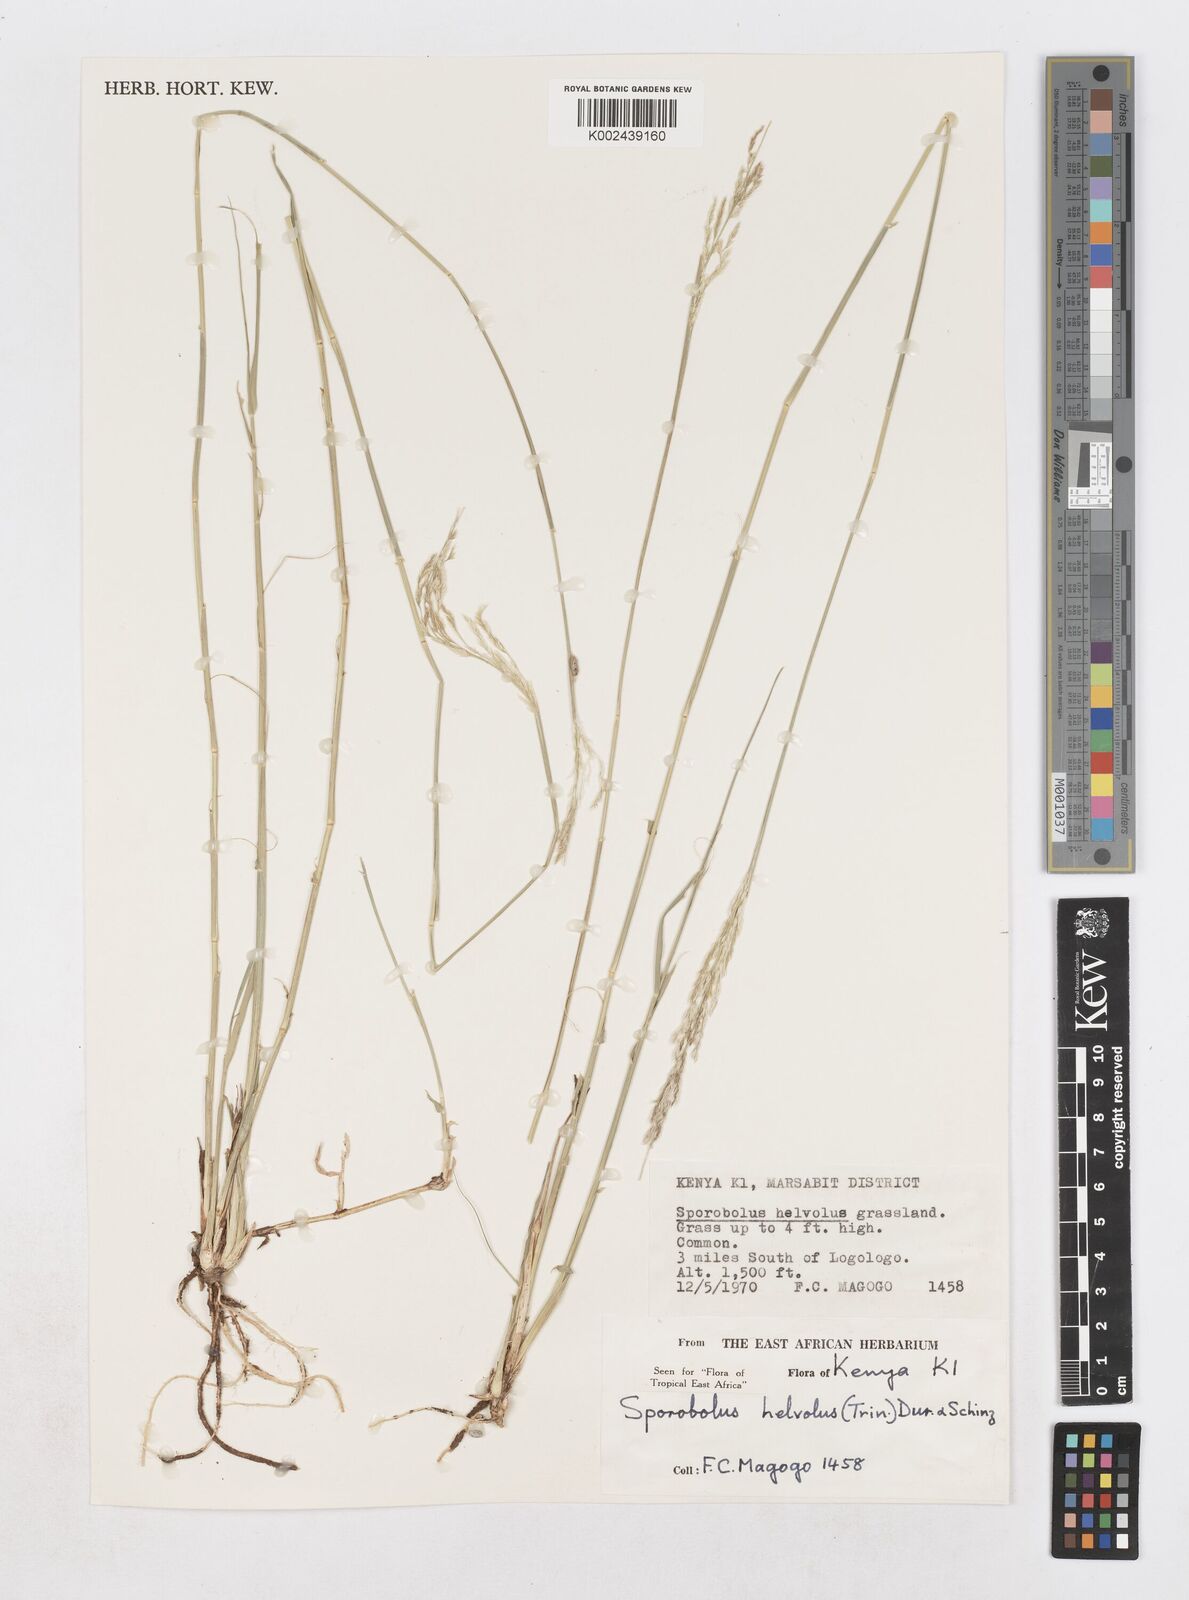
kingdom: Plantae
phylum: Tracheophyta
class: Liliopsida
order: Poales
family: Poaceae
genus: Sporobolus
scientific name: Sporobolus helvolus
